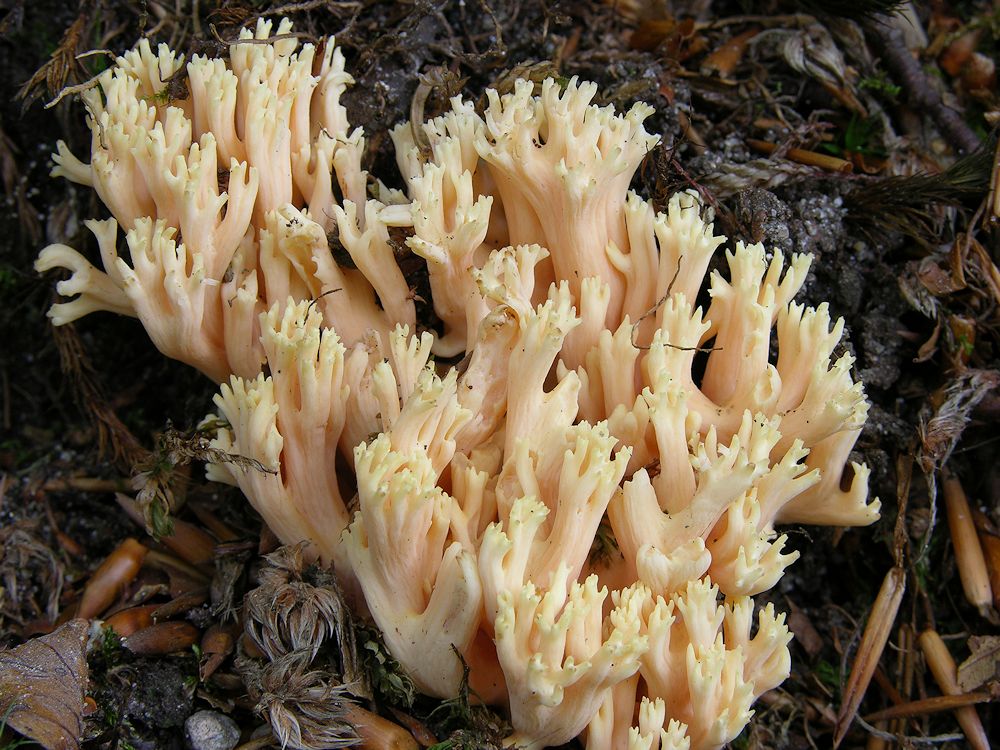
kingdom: Fungi
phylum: Basidiomycota
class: Agaricomycetes
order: Gomphales
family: Gomphaceae
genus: Ramaria
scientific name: Ramaria fagetorum
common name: abrikos-koralsvamp
